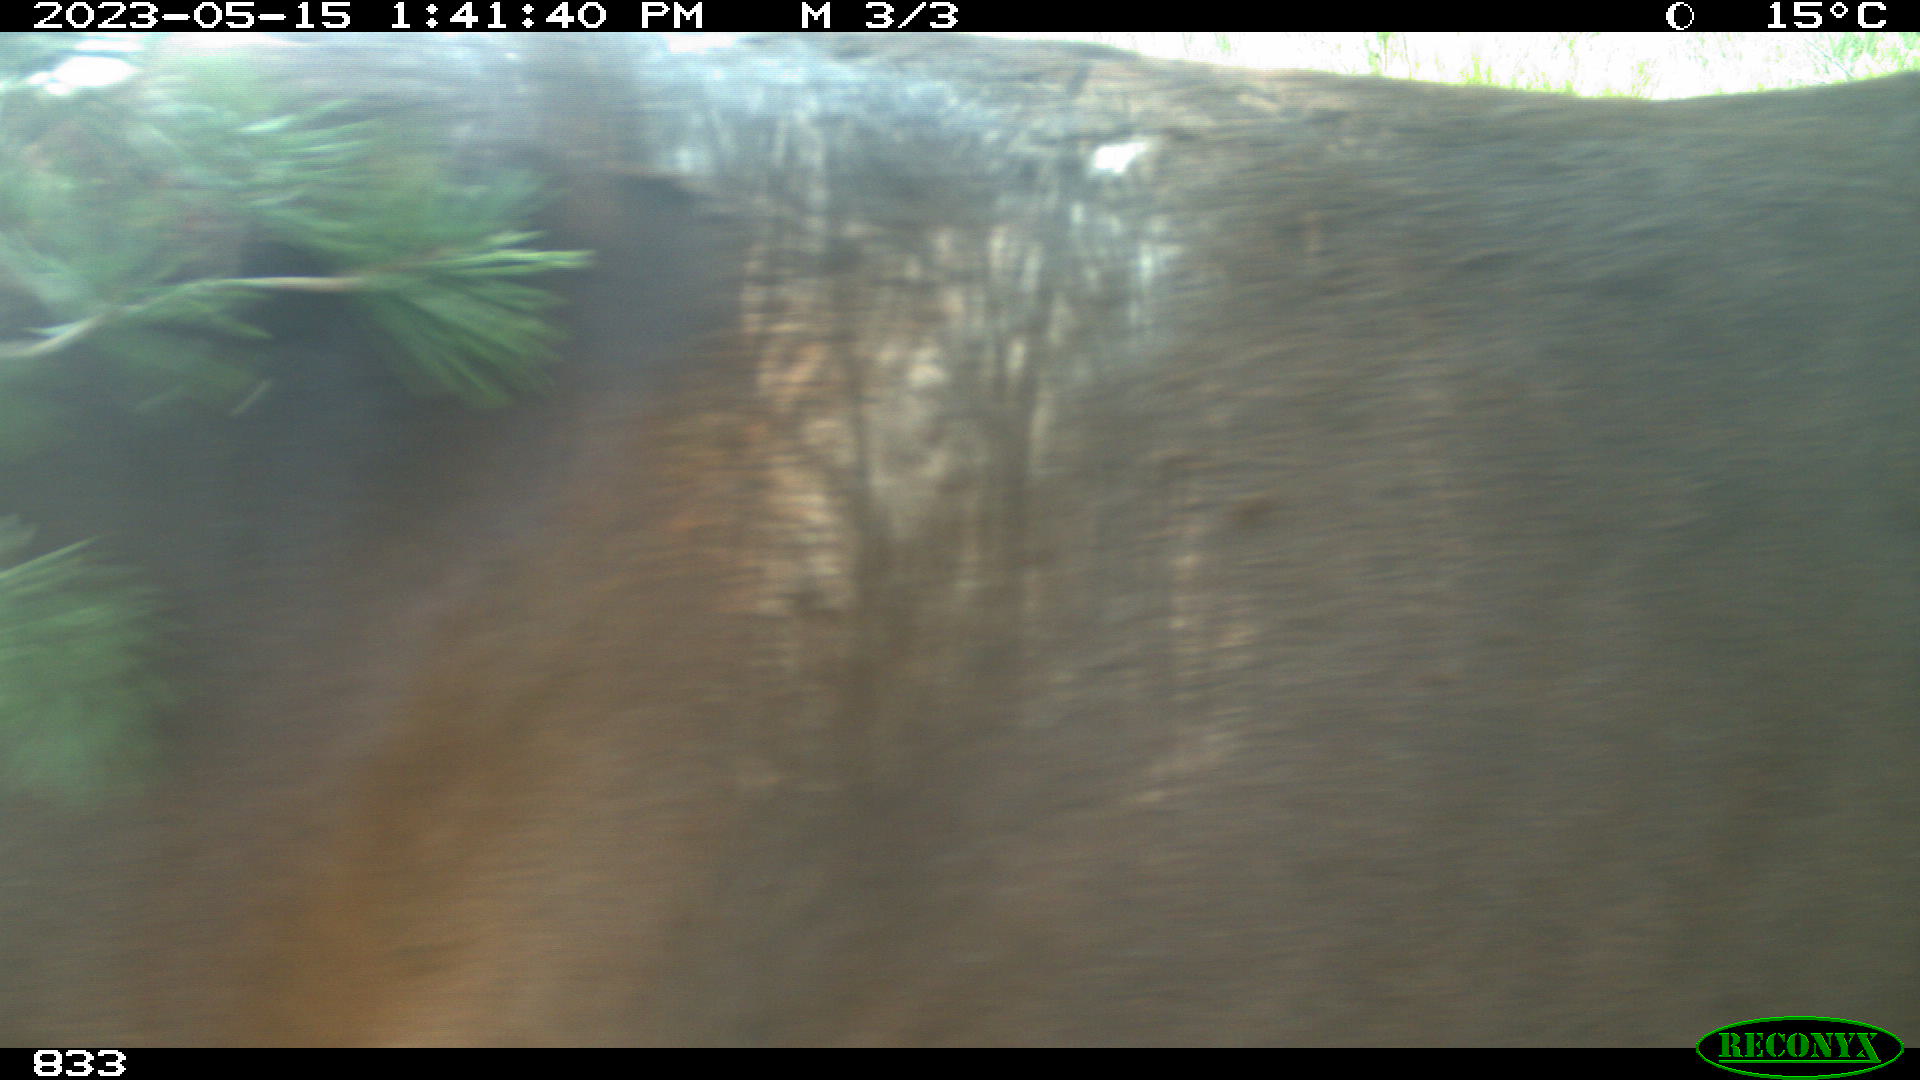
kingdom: Animalia
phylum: Chordata
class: Mammalia
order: Perissodactyla
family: Equidae
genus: Equus
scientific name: Equus caballus
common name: Horse
